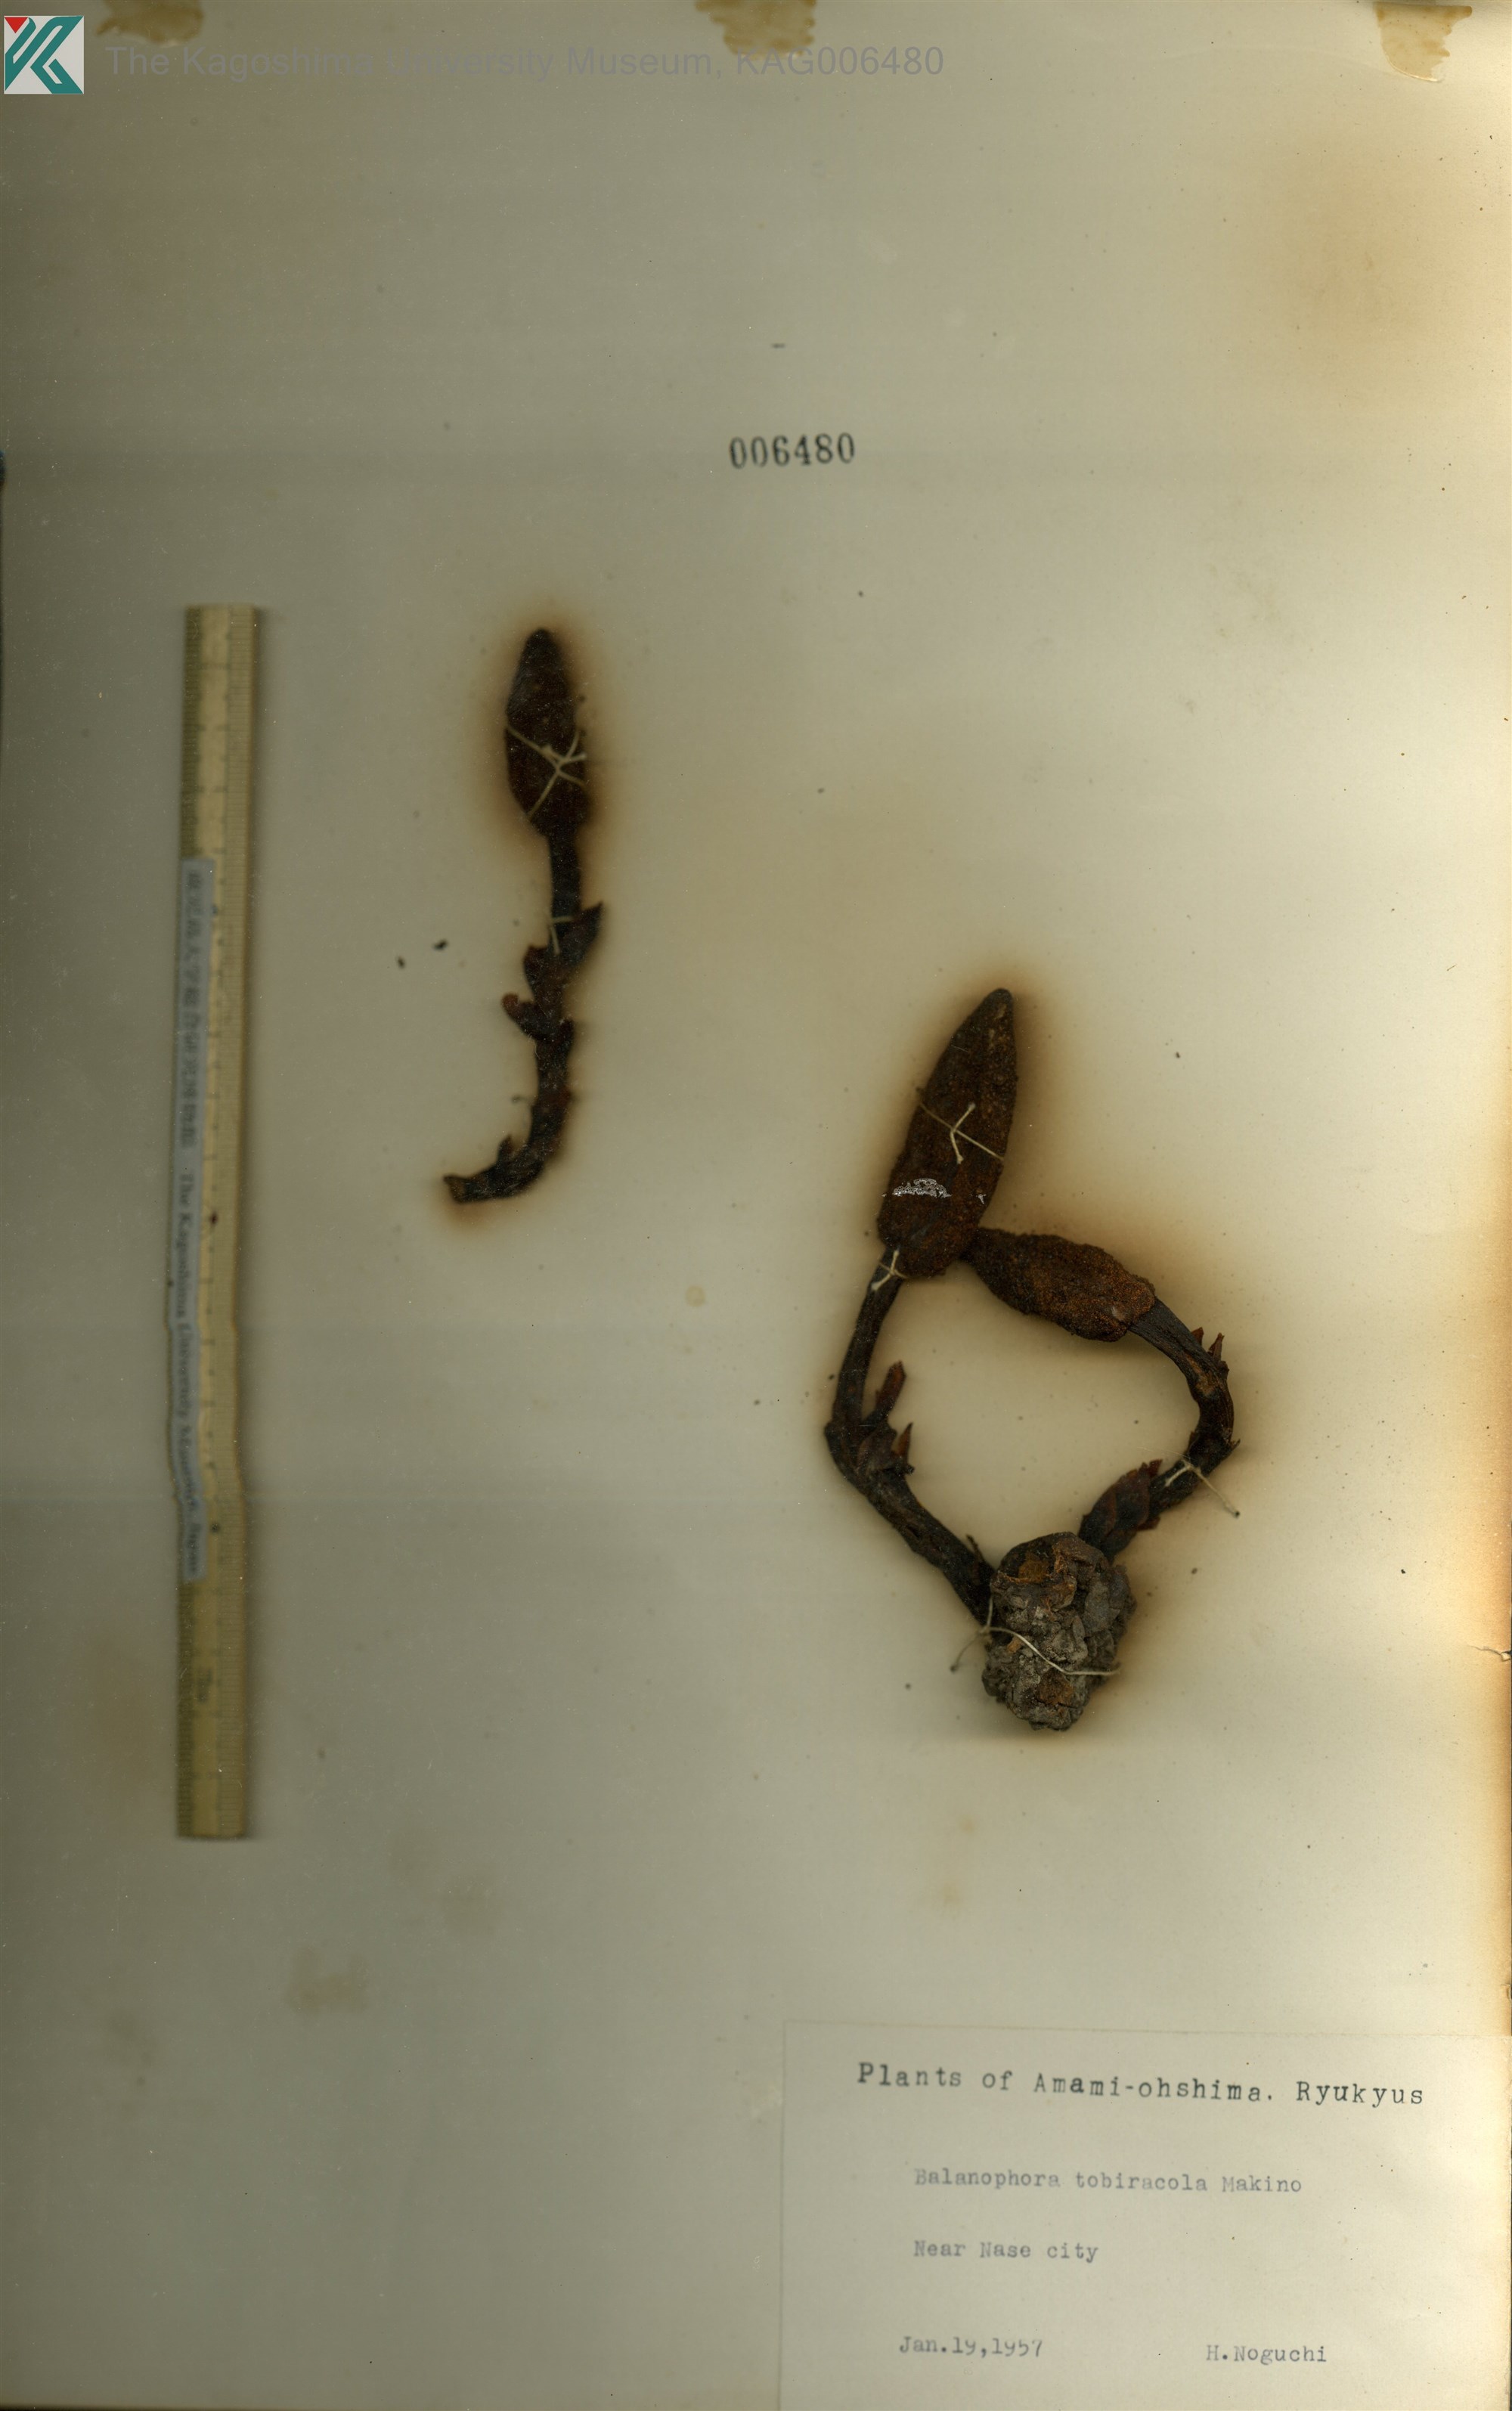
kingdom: Plantae
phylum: Tracheophyta
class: Magnoliopsida
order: Santalales
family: Balanophoraceae
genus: Balanophora
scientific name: Balanophora tobiracola
